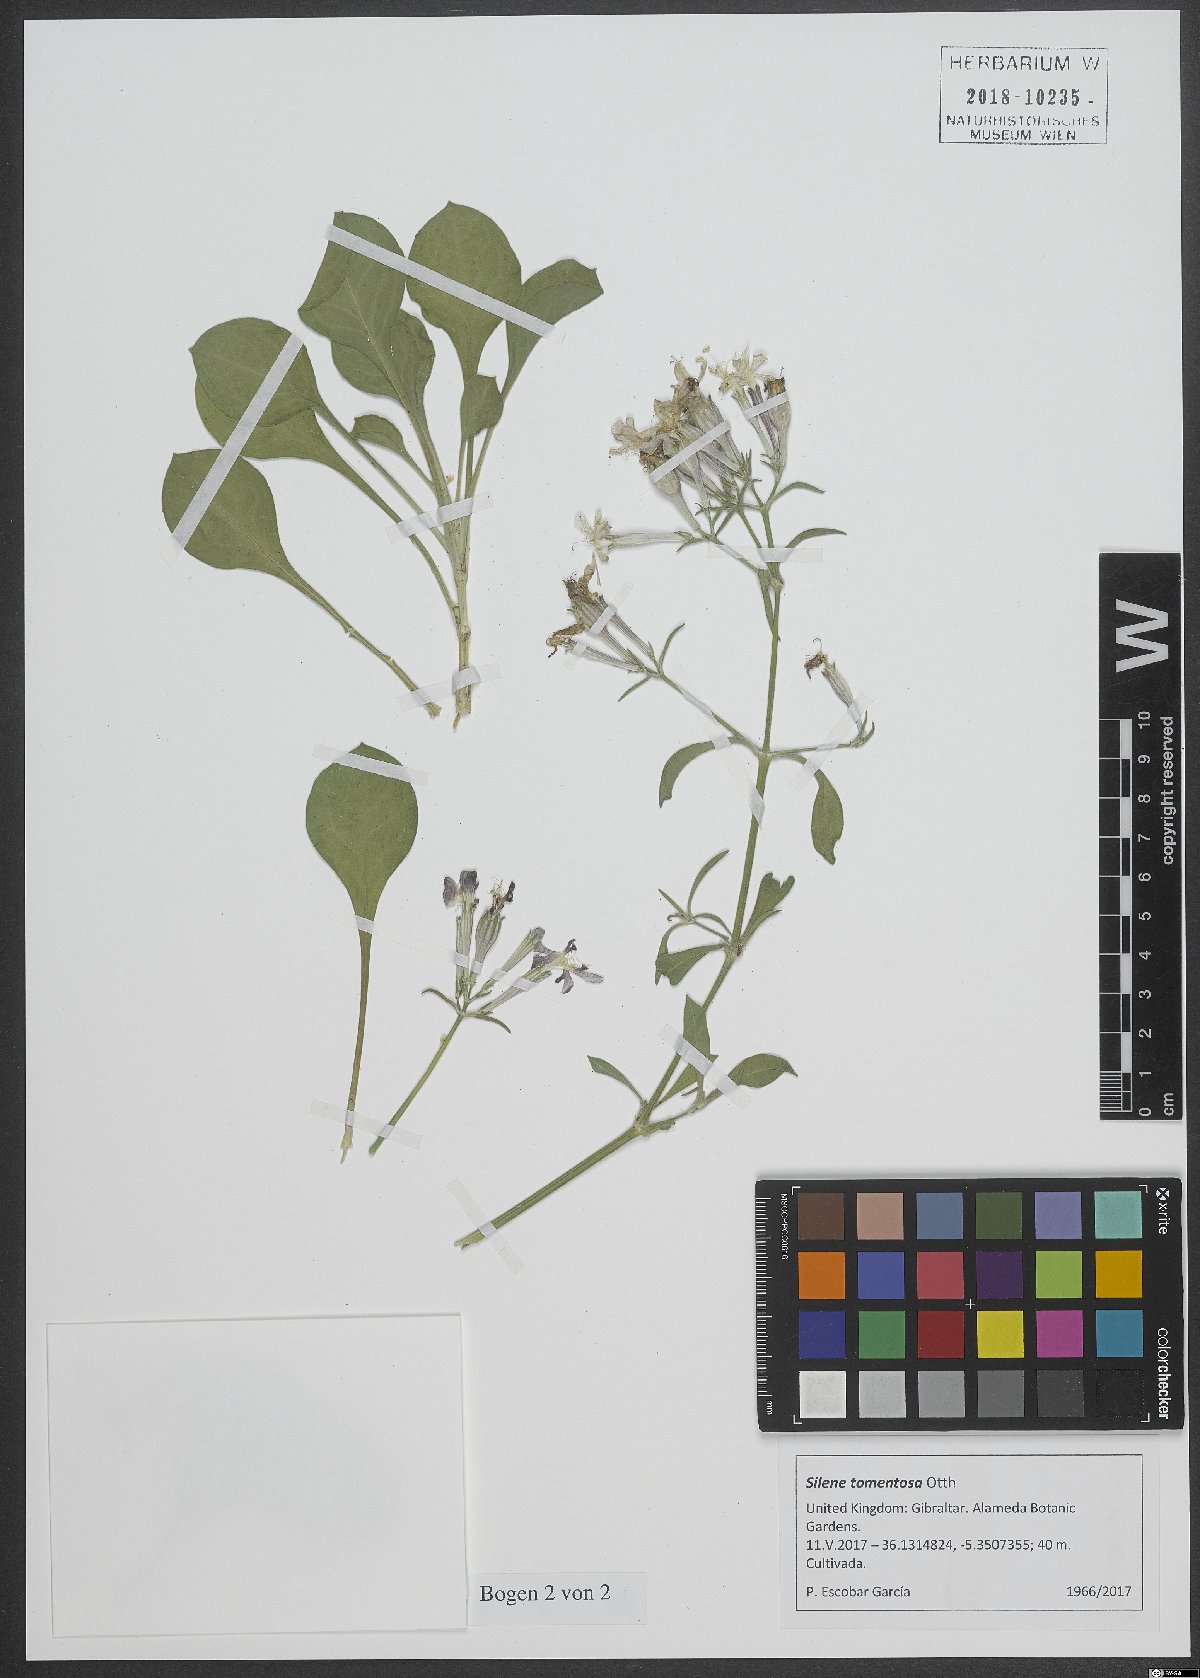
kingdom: Plantae
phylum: Tracheophyta
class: Magnoliopsida
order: Caryophyllales
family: Caryophyllaceae
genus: Silene
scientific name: Silene tomentosa
